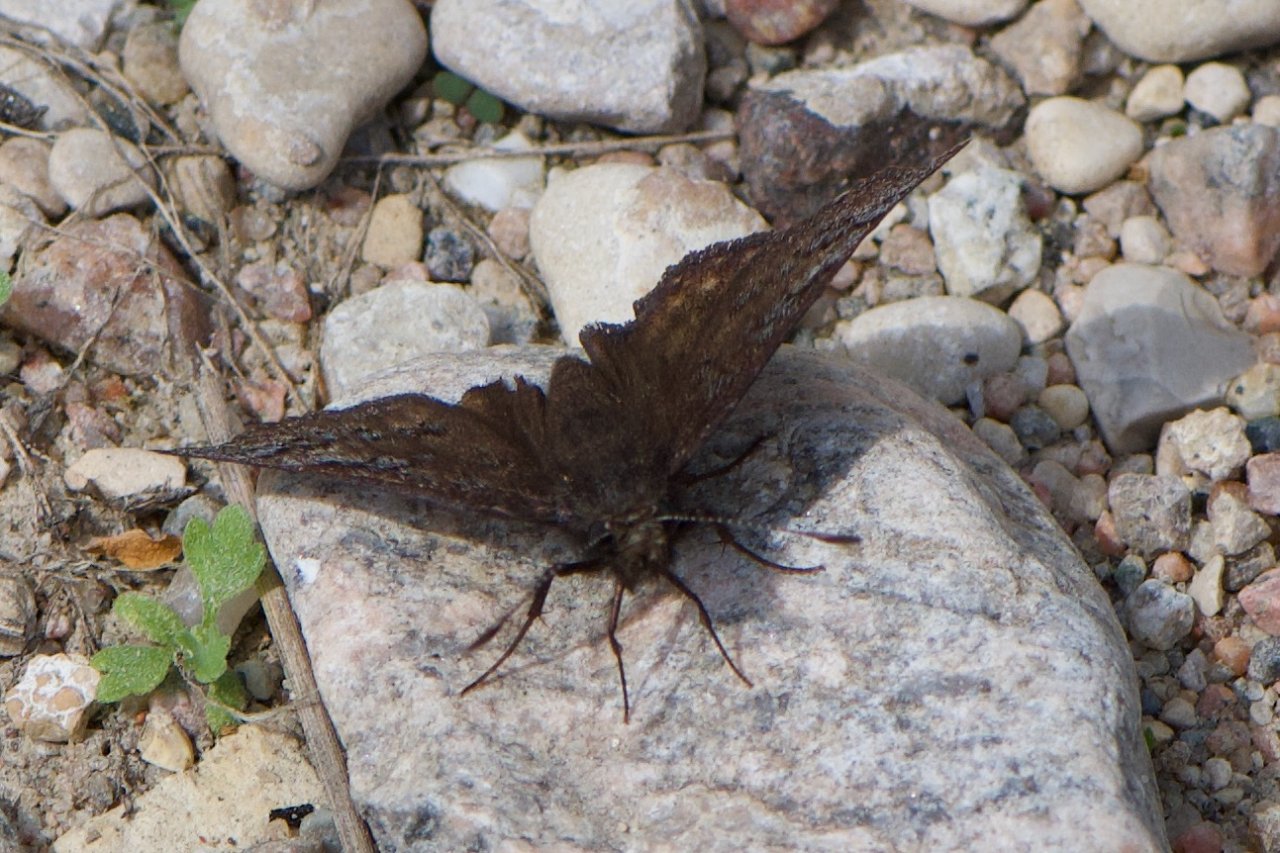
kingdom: Animalia
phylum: Arthropoda
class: Insecta
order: Lepidoptera
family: Hesperiidae
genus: Erynnis
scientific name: Erynnis icelus
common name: Dreamy Duskywing
